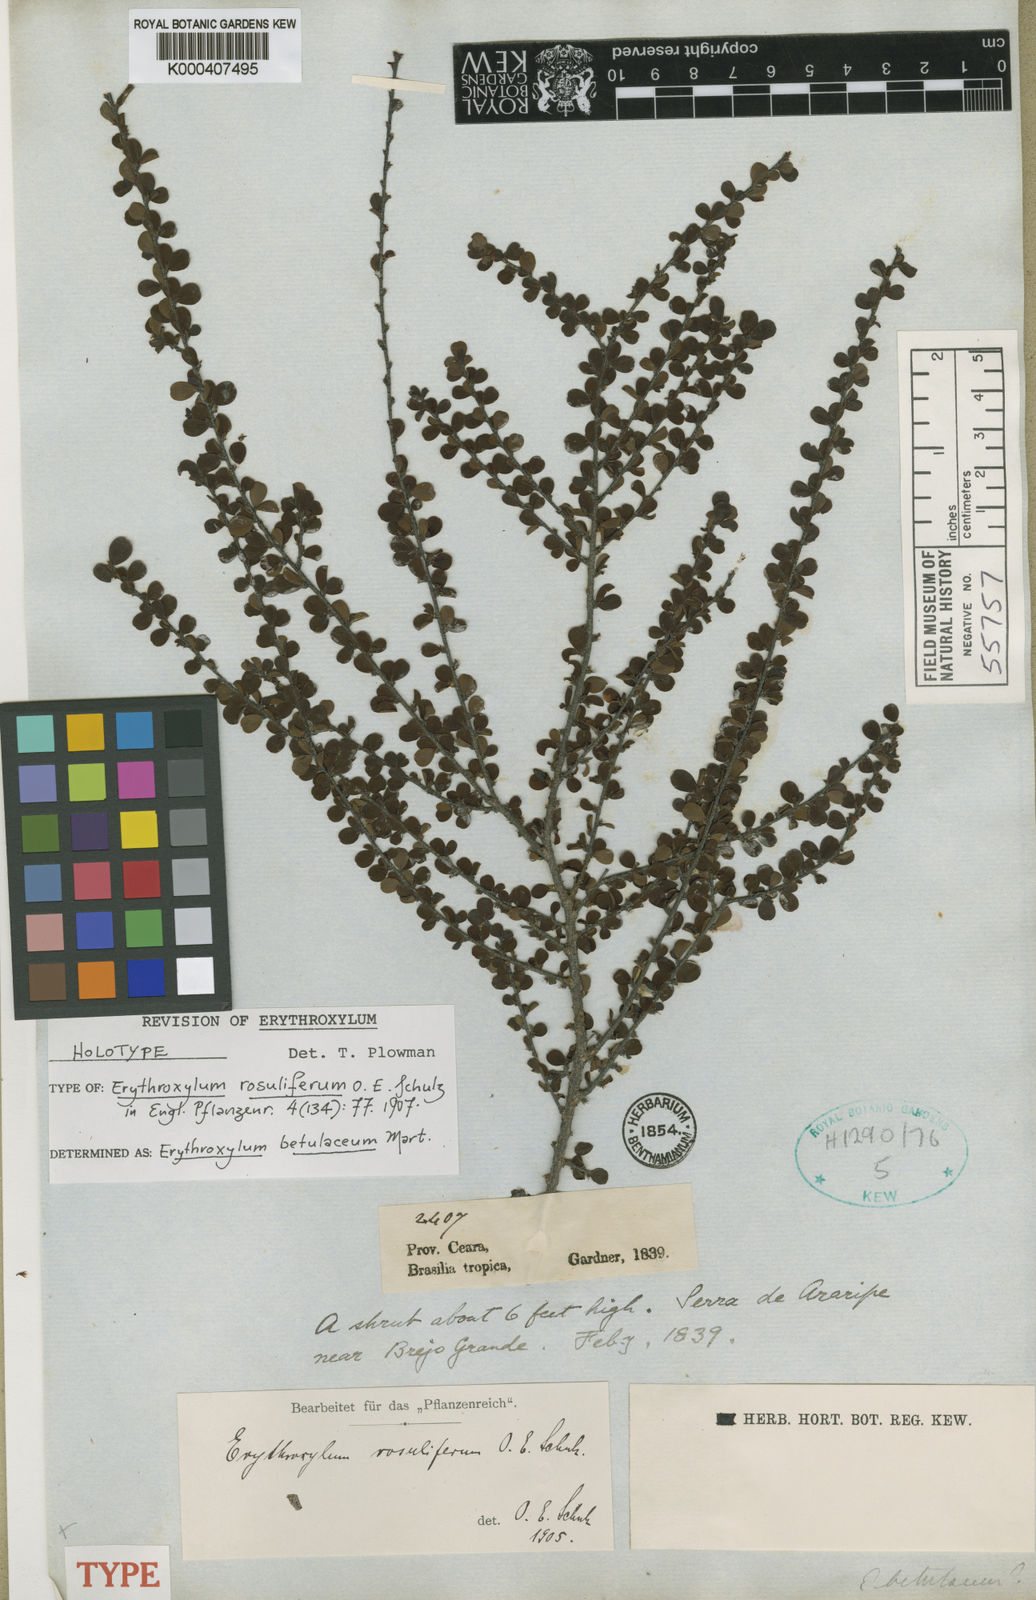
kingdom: Plantae
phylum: Tracheophyta
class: Magnoliopsida
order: Malpighiales
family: Erythroxylaceae
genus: Erythroxylum
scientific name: Erythroxylum betulaceum
